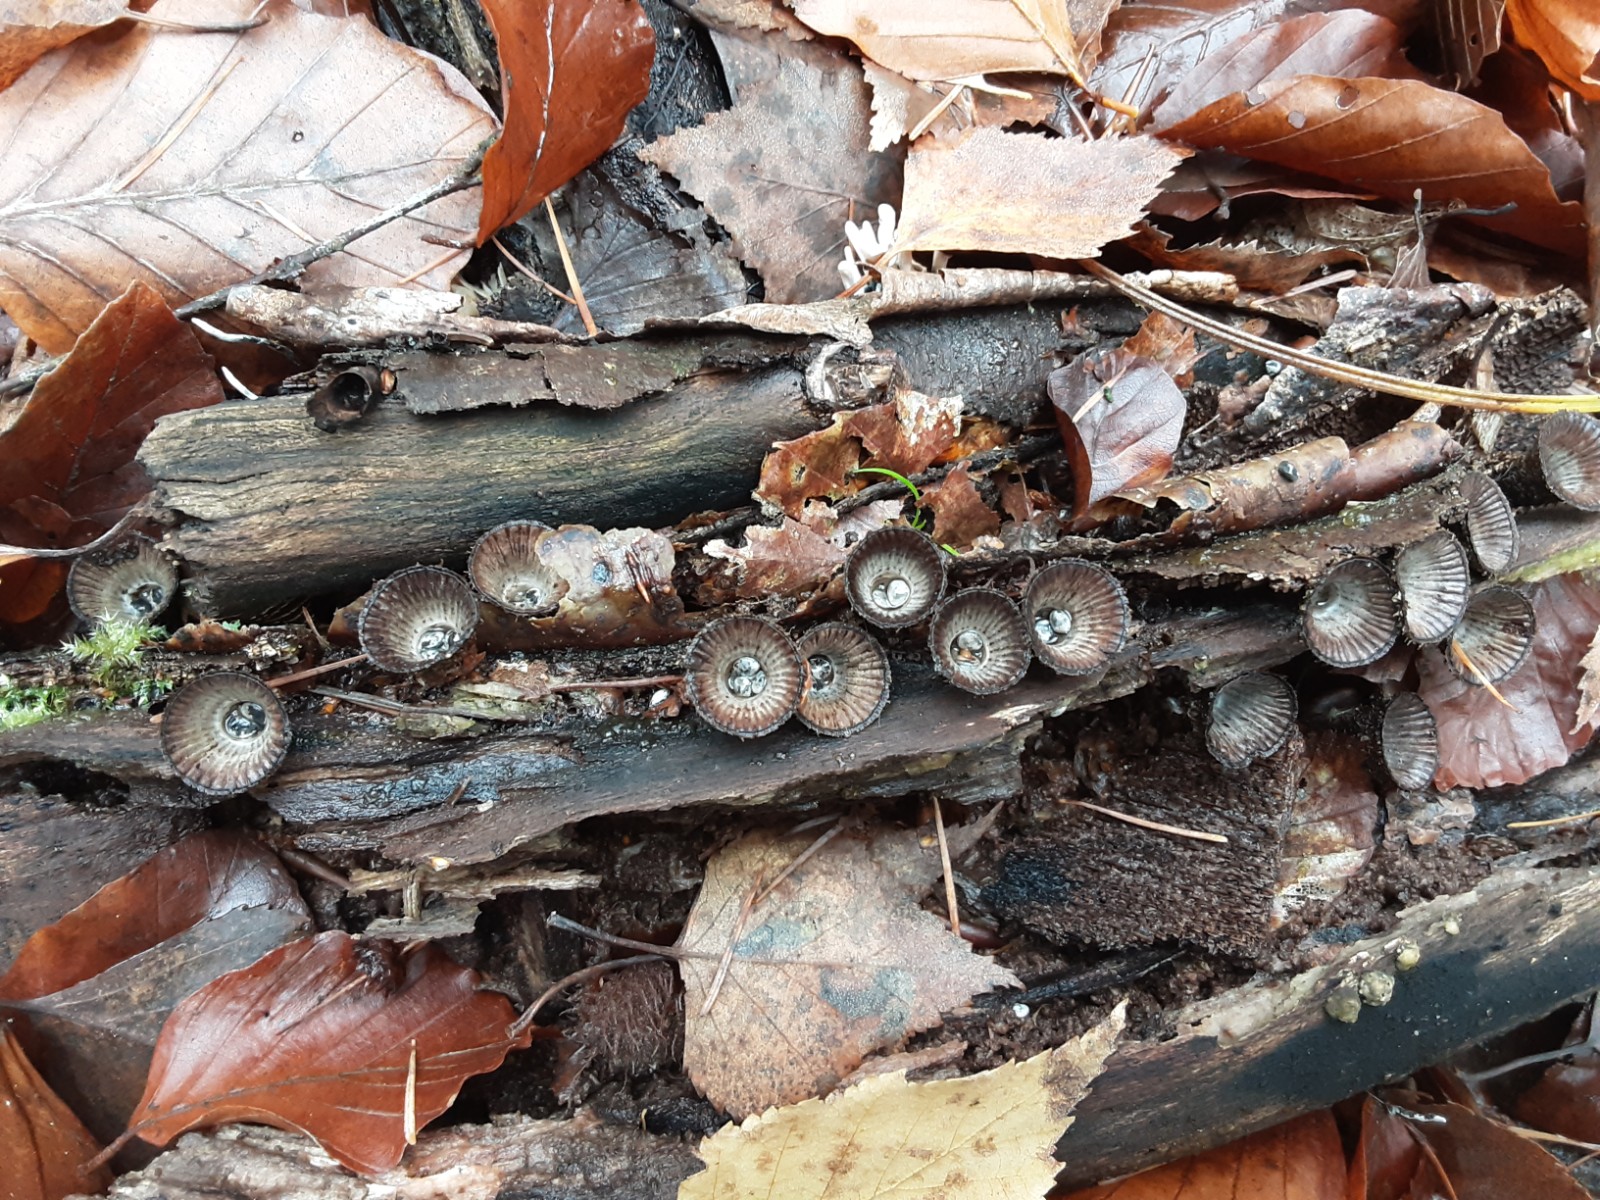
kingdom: Fungi
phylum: Basidiomycota
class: Agaricomycetes
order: Agaricales
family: Agaricaceae
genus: Cyathus
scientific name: Cyathus striatus
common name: stribet redesvamp
